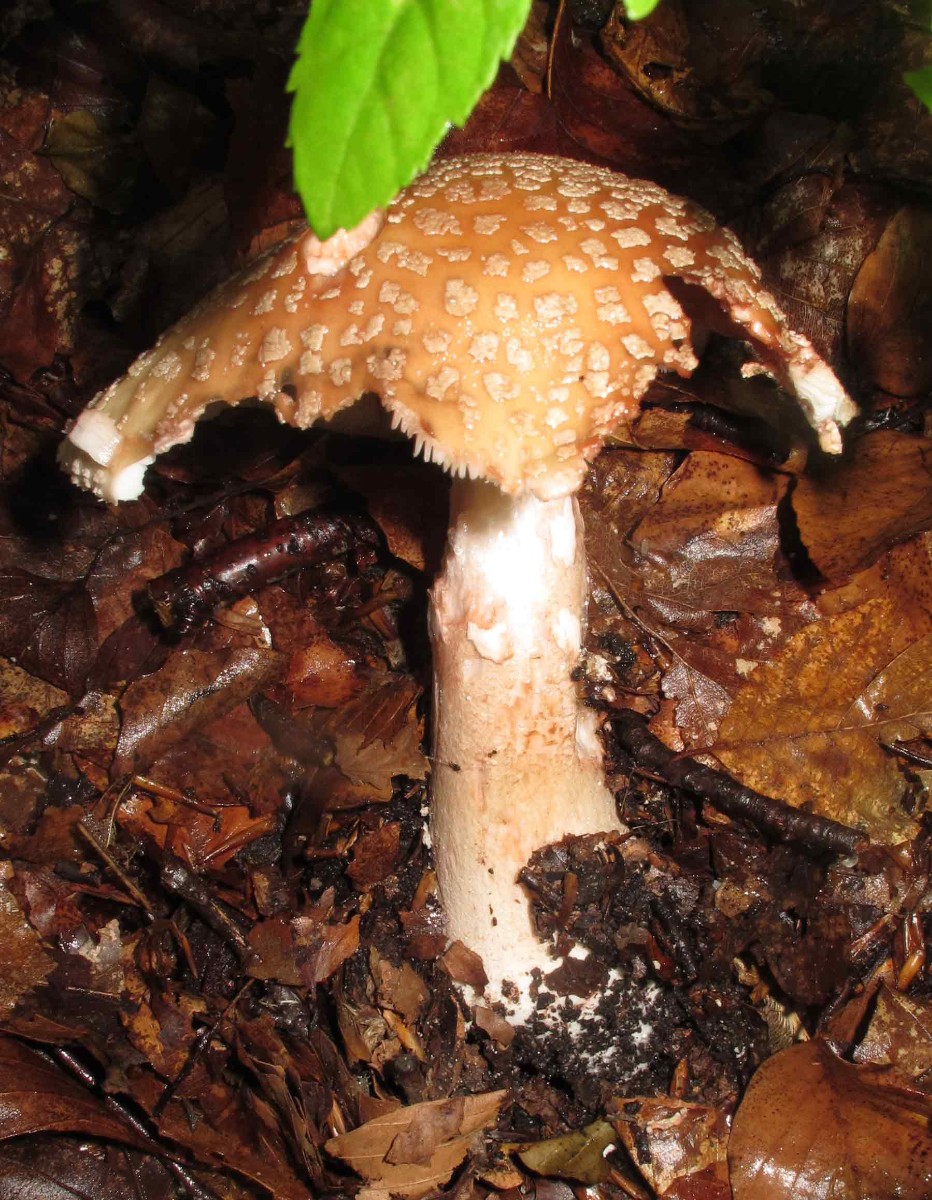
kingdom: Fungi
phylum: Basidiomycota
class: Agaricomycetes
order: Agaricales
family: Amanitaceae
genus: Amanita
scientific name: Amanita rubescens
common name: rødmende fluesvamp
